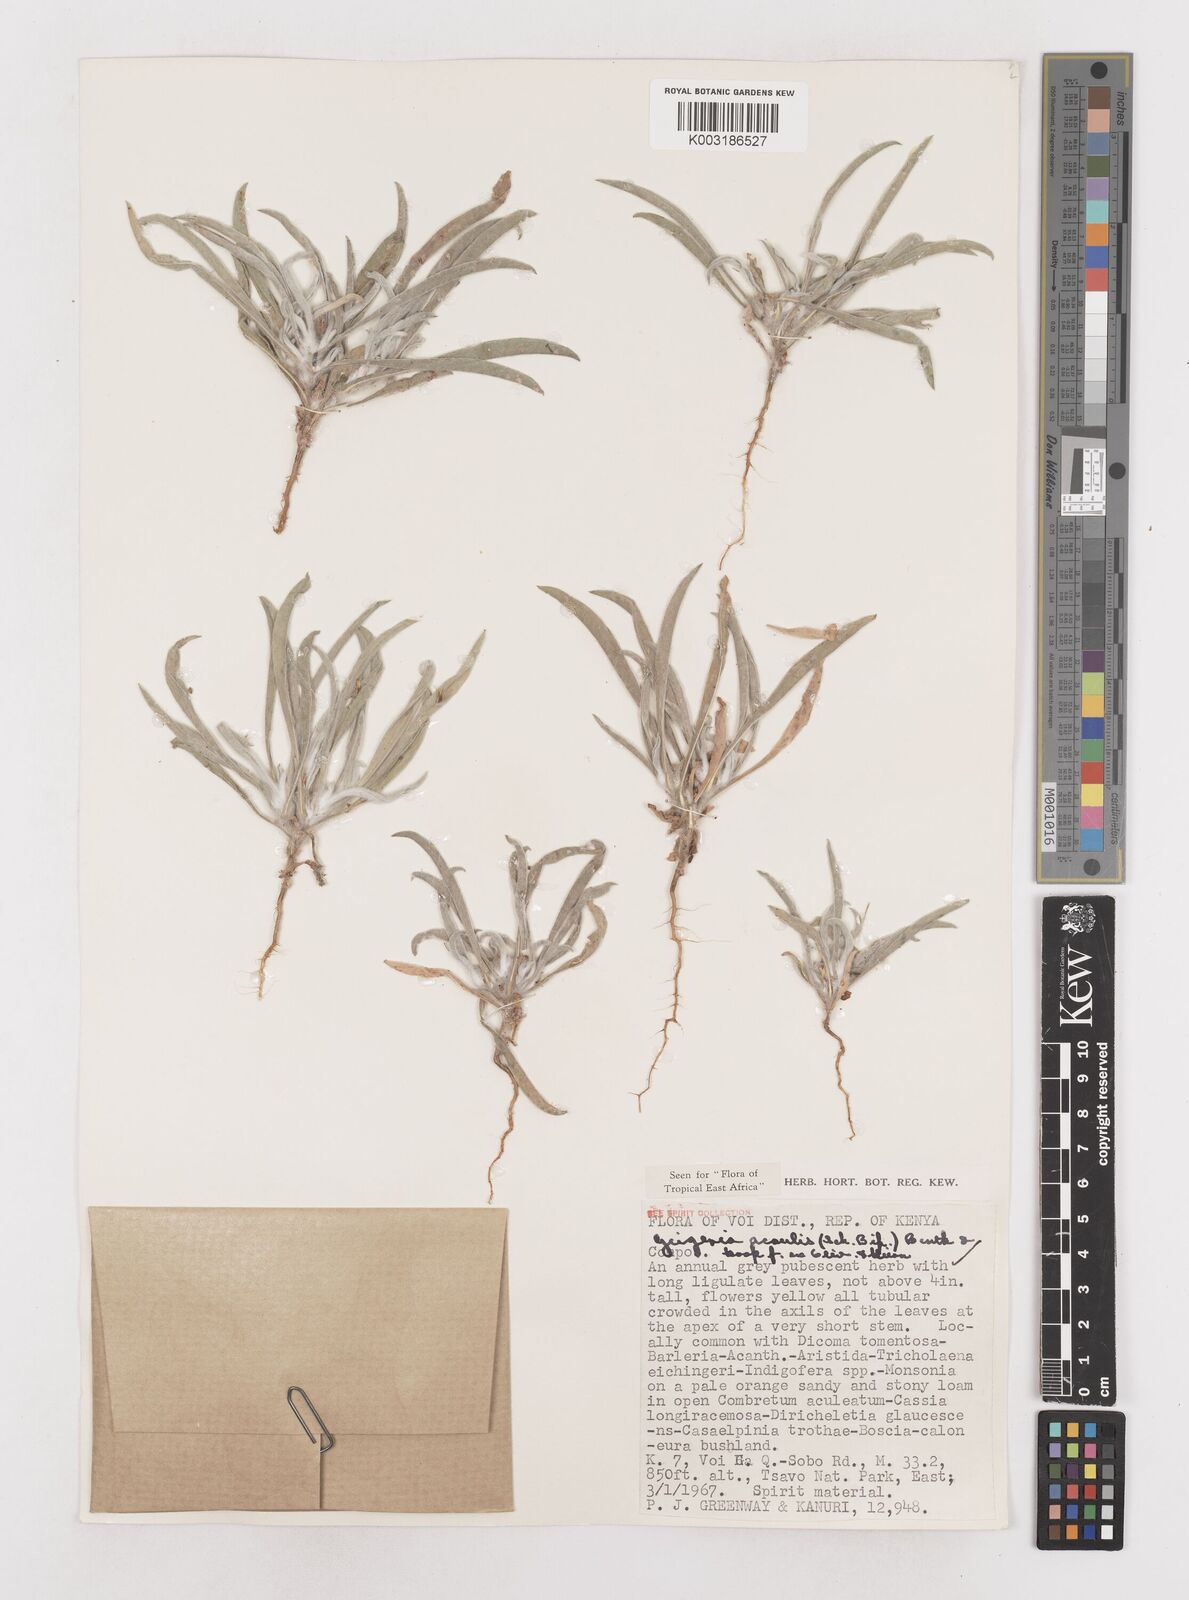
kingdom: Plantae
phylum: Tracheophyta
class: Magnoliopsida
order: Asterales
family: Asteraceae
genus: Geigeria
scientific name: Geigeria acaulis
